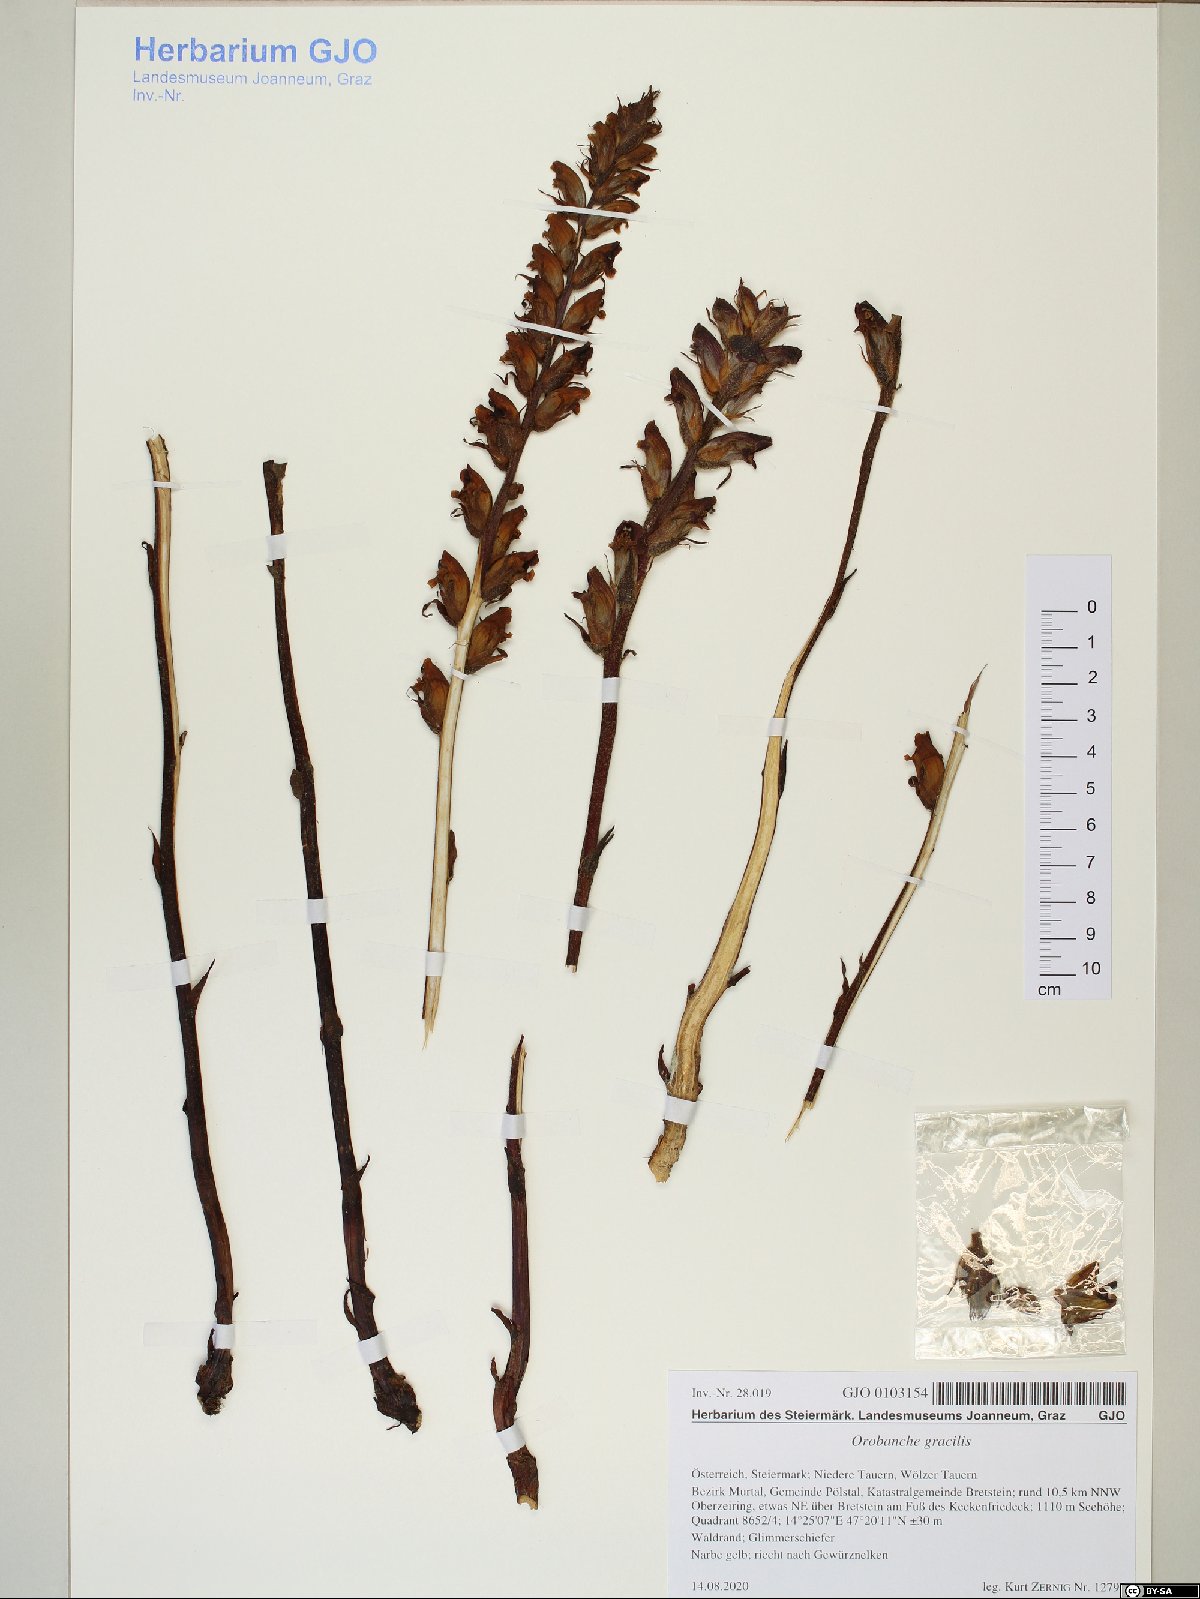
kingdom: Plantae
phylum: Tracheophyta
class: Magnoliopsida
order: Lamiales
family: Orobanchaceae
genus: Orobanche
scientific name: Orobanche gracilis
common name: Slender broomrape
